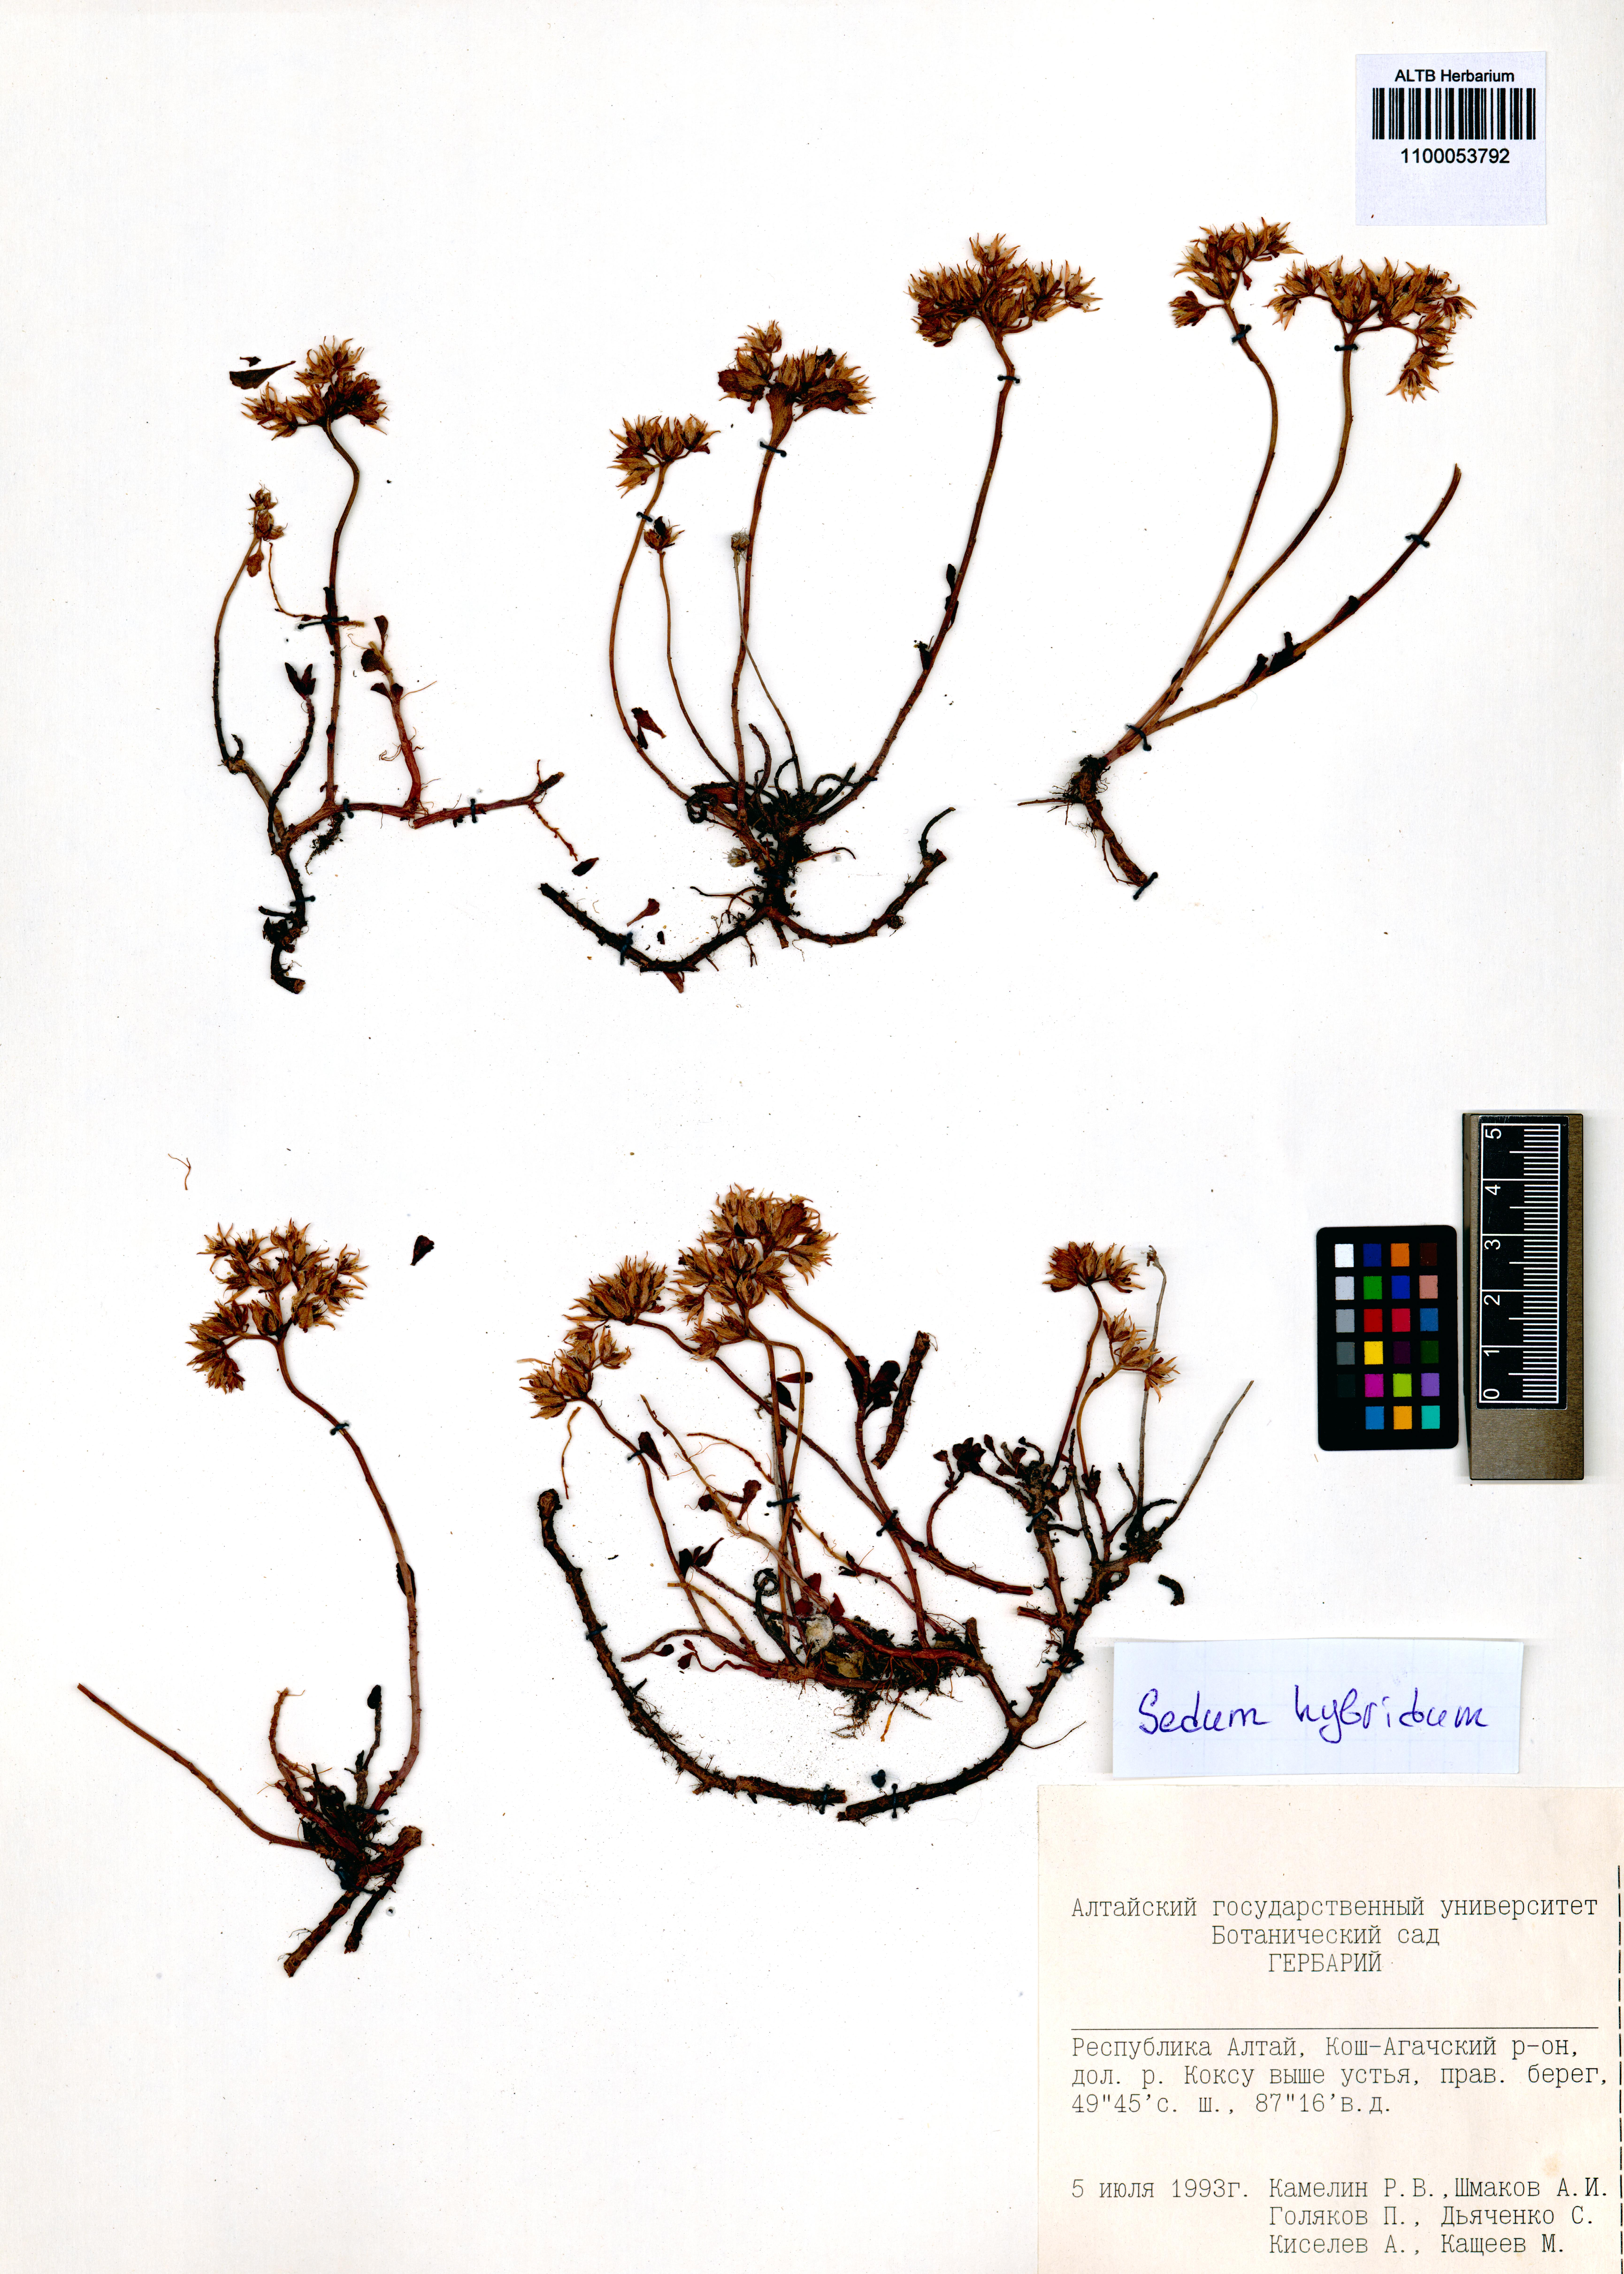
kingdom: Plantae
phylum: Tracheophyta
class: Magnoliopsida
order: Saxifragales
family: Crassulaceae
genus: Phedimus
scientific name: Phedimus hybridus
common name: Hybrid stonecrop
